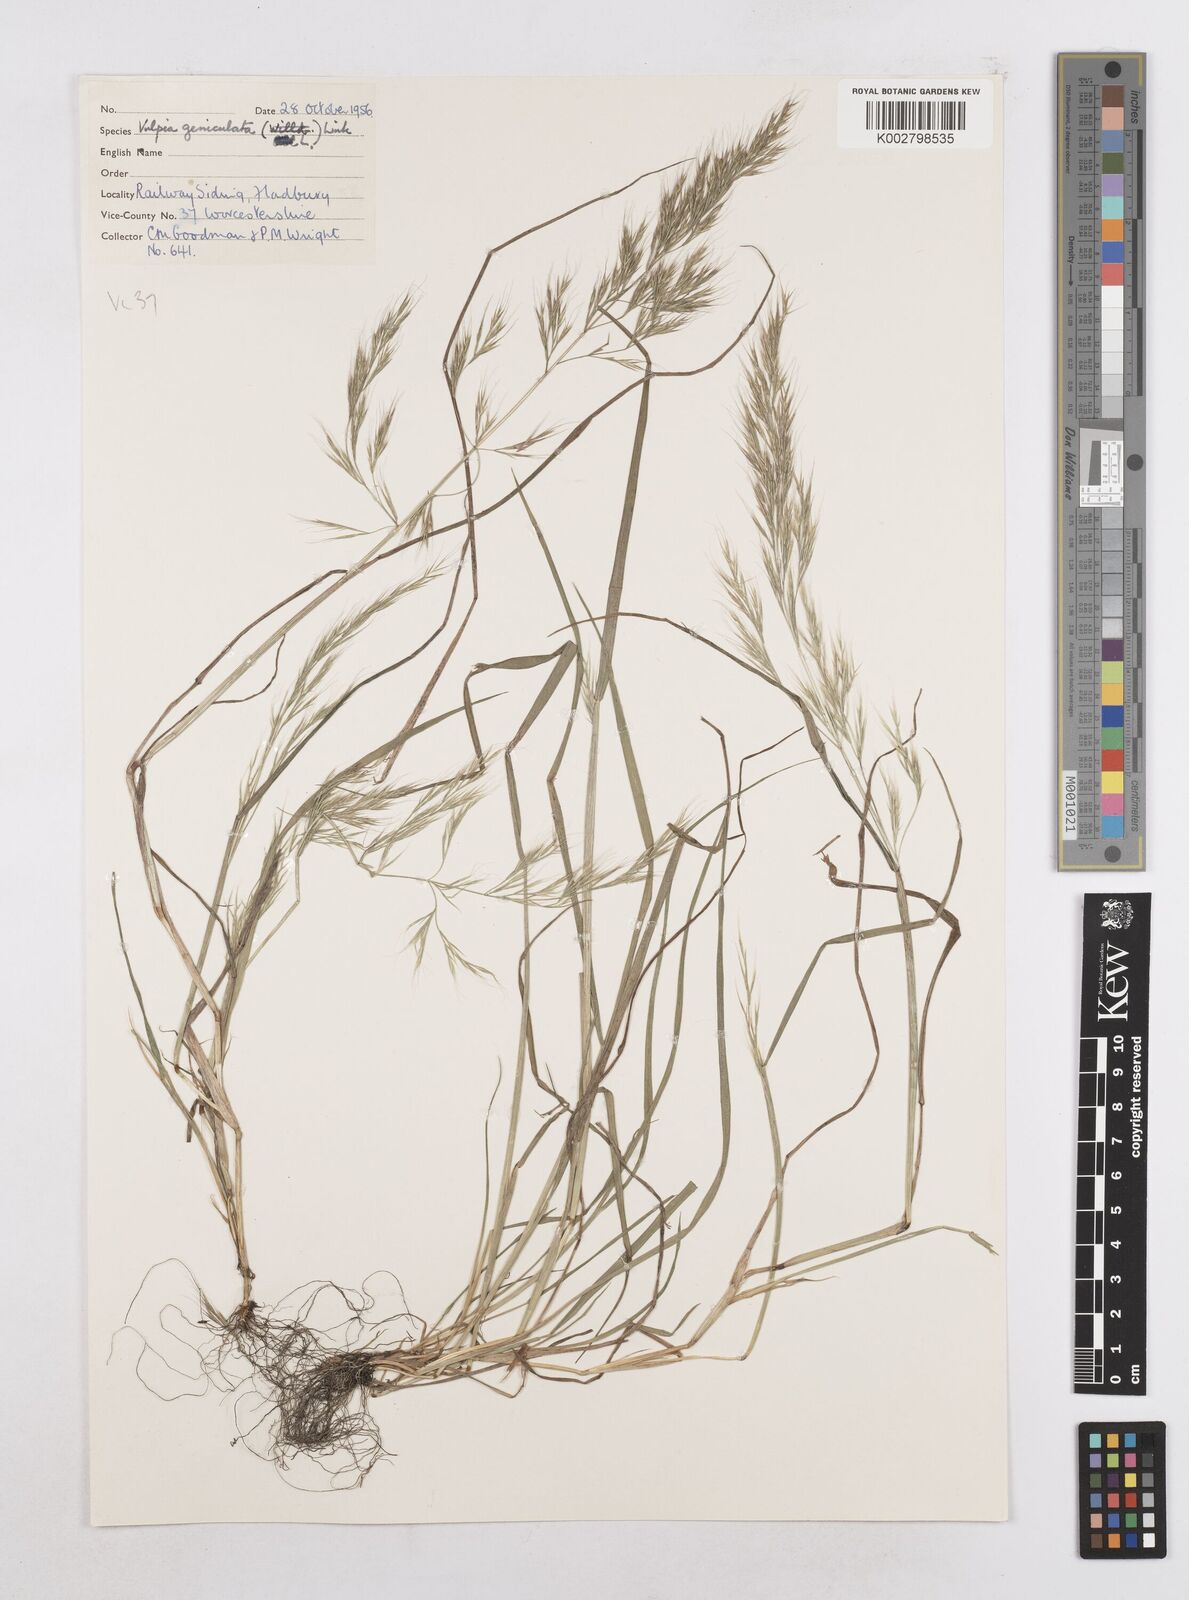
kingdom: Plantae
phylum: Tracheophyta
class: Liliopsida
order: Poales
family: Poaceae
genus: Festuca
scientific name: Festuca geniculata
